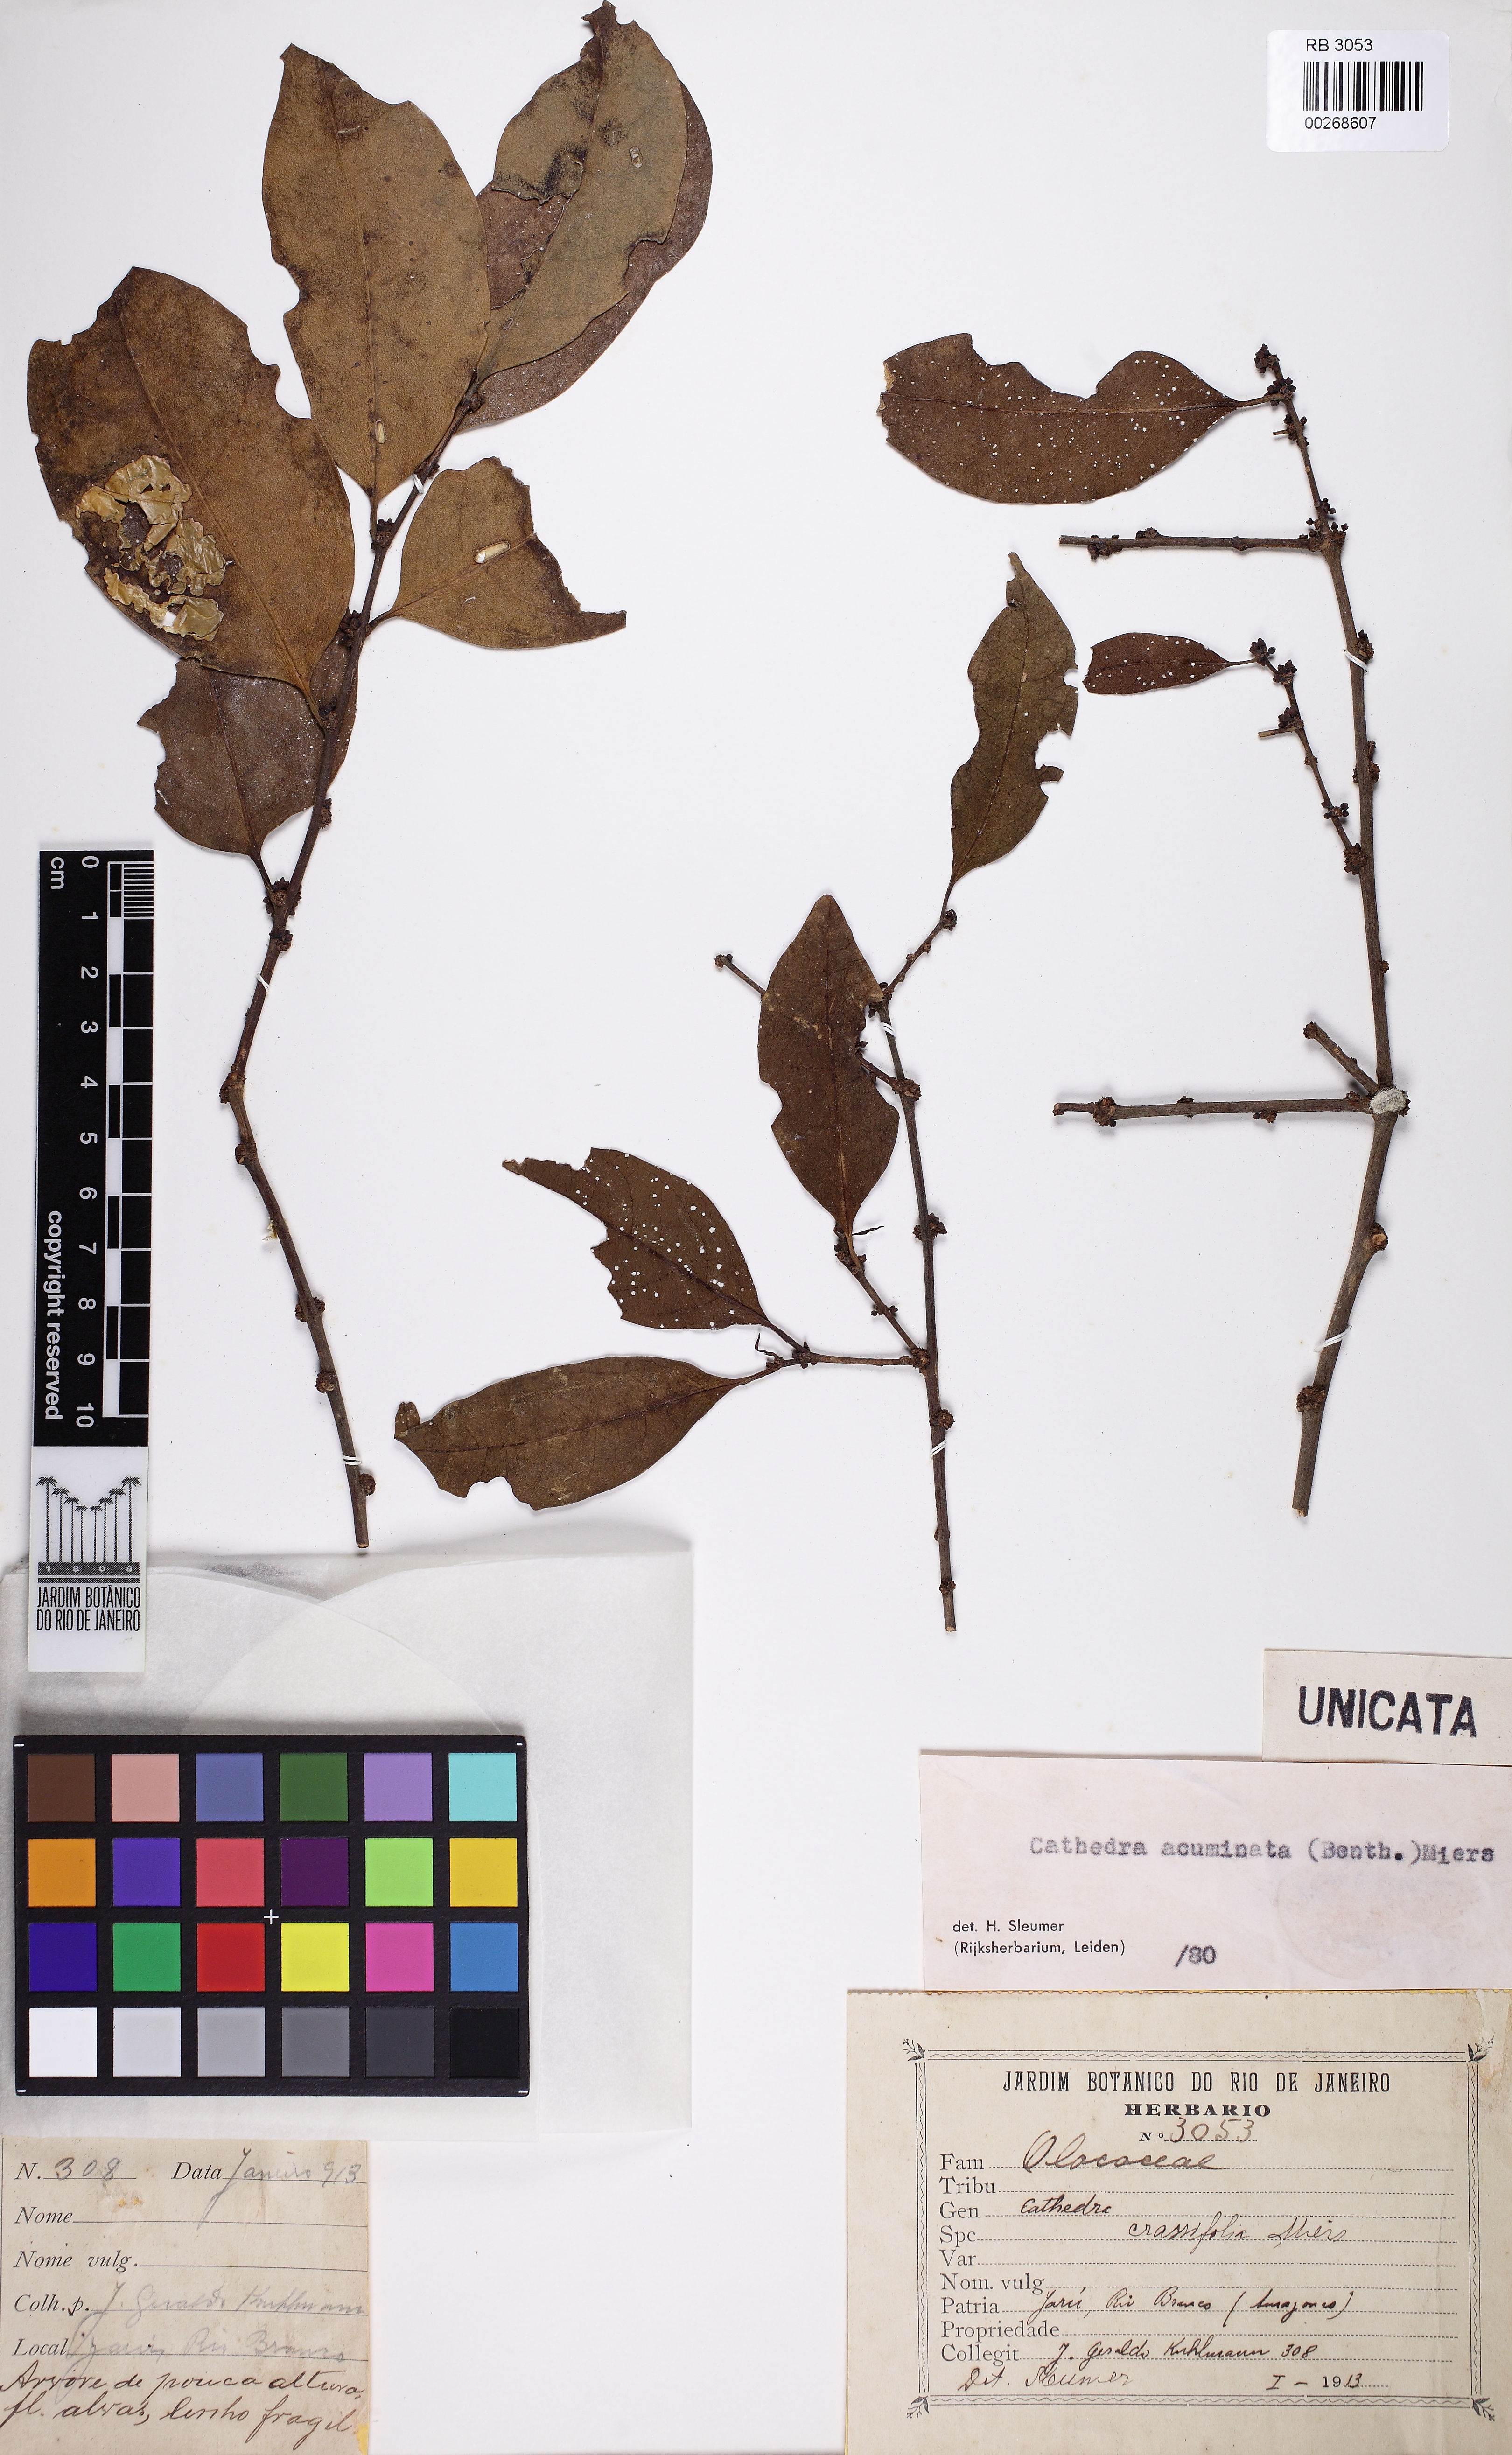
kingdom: Plantae
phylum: Tracheophyta
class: Magnoliopsida
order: Santalales
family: Aptandraceae
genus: Cathedra
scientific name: Cathedra acuminata
